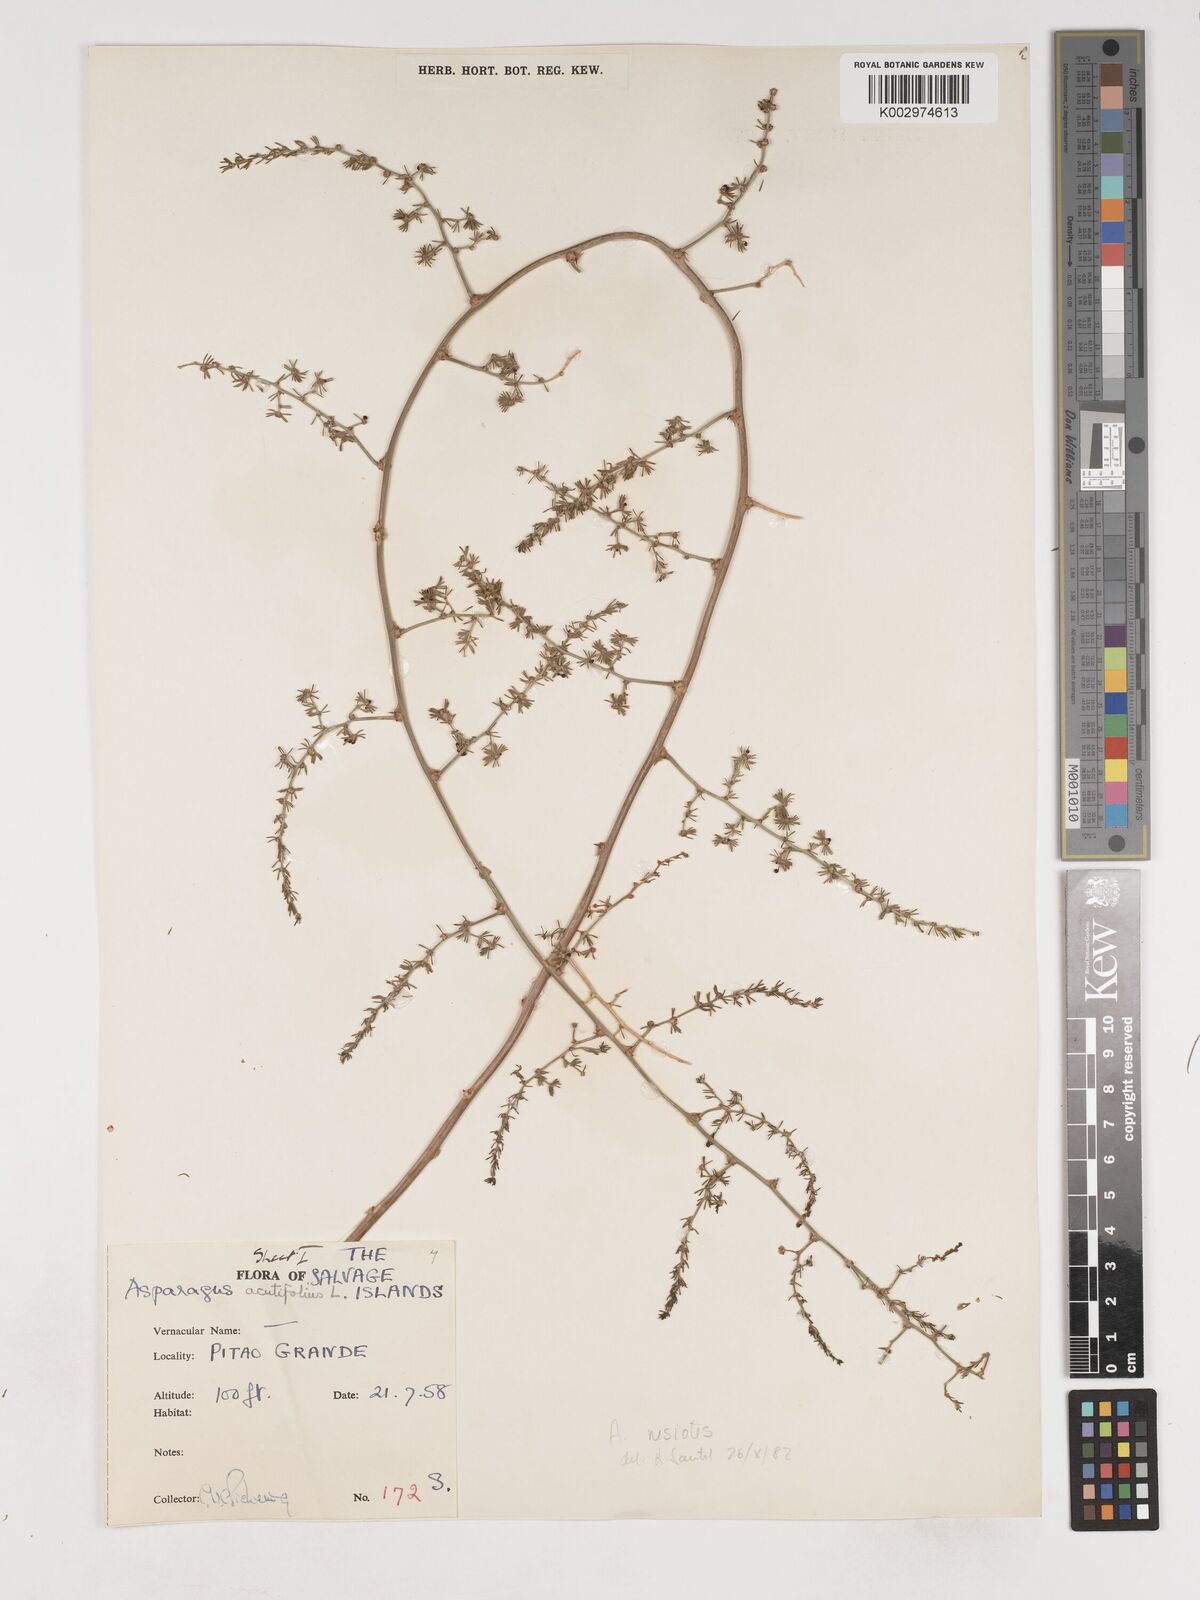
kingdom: Plantae
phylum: Tracheophyta
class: Liliopsida
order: Asparagales
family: Asparagaceae
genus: Asparagus
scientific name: Asparagus acutifolius
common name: Wild asparagus
